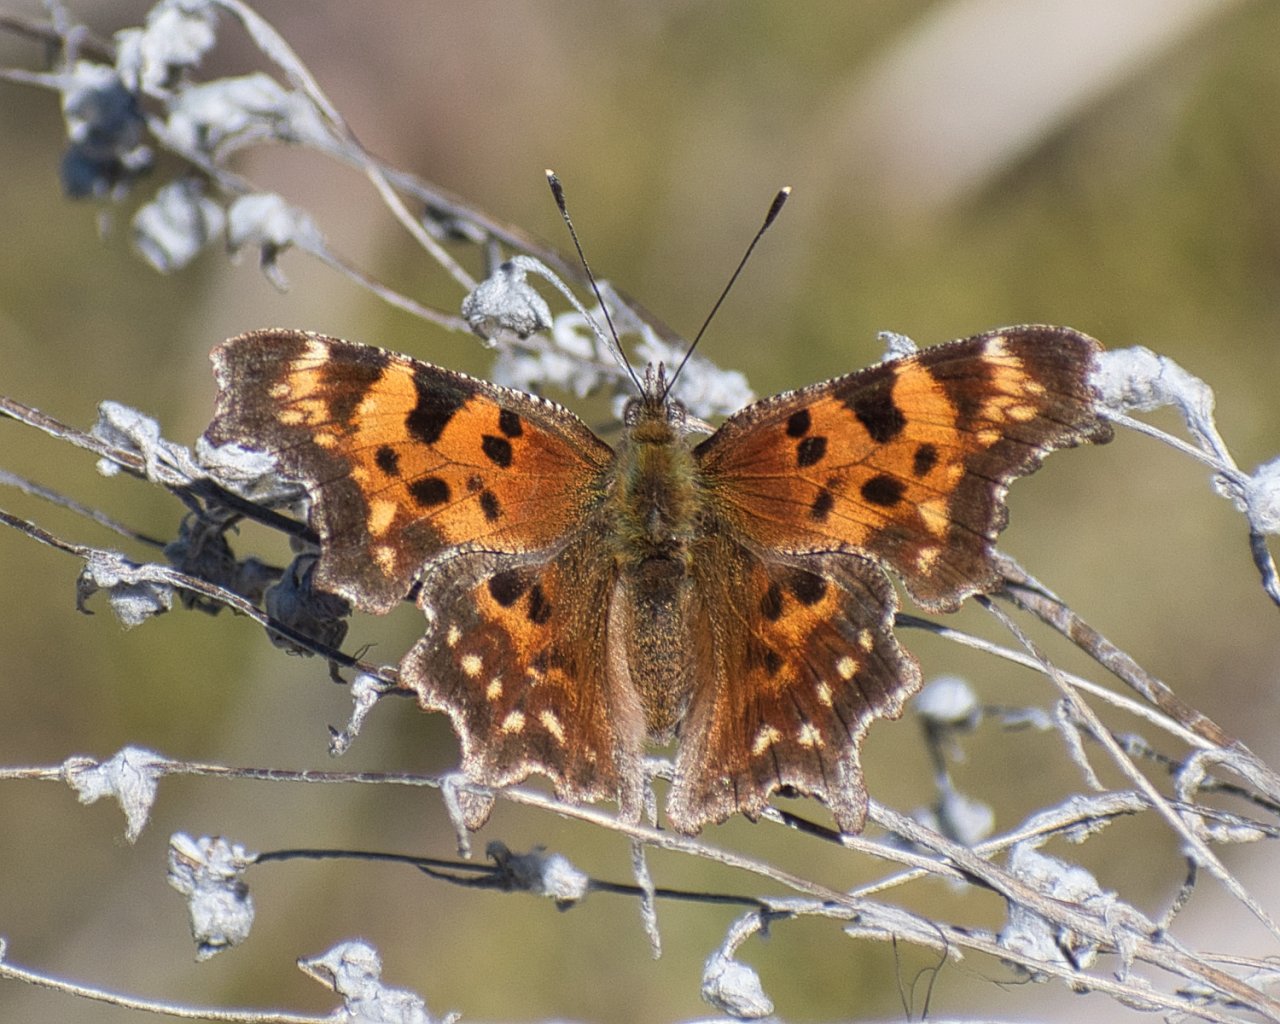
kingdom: Animalia
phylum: Arthropoda
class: Insecta
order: Lepidoptera
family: Nymphalidae
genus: Polygonia
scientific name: Polygonia faunus
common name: Green Comma
